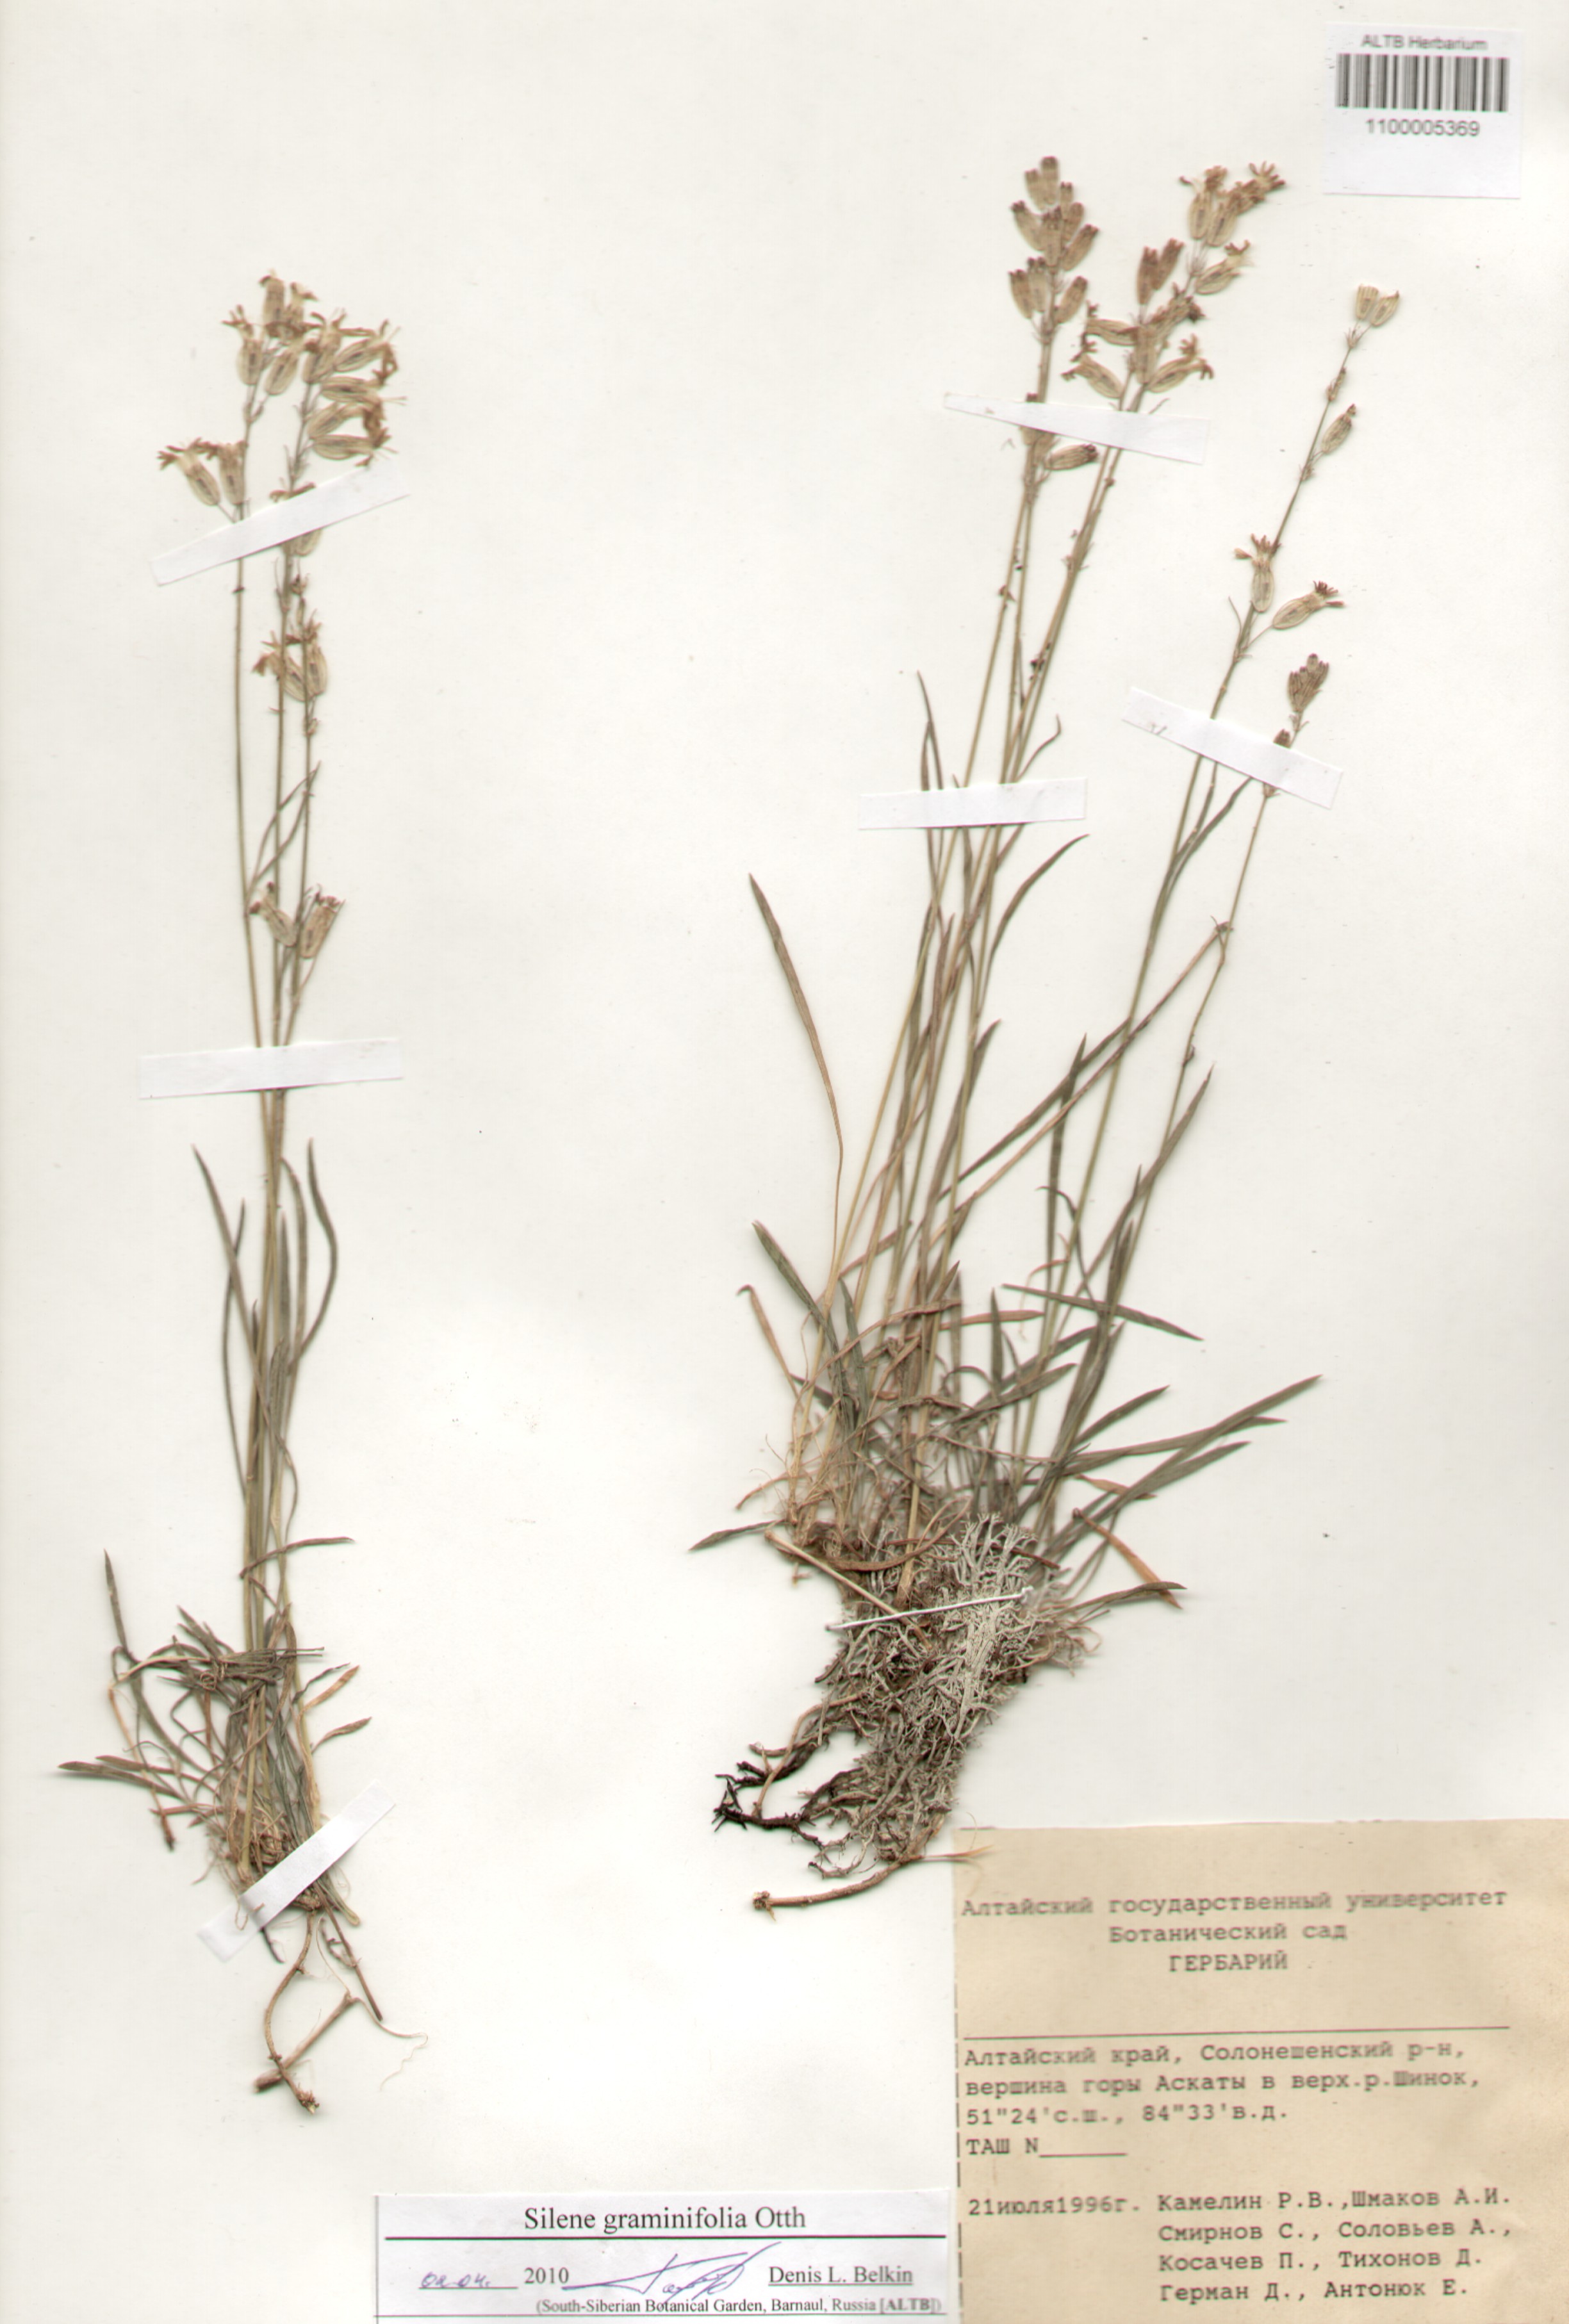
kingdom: Plantae
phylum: Tracheophyta
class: Magnoliopsida
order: Caryophyllales
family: Caryophyllaceae
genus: Silene
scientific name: Silene graminifolia
